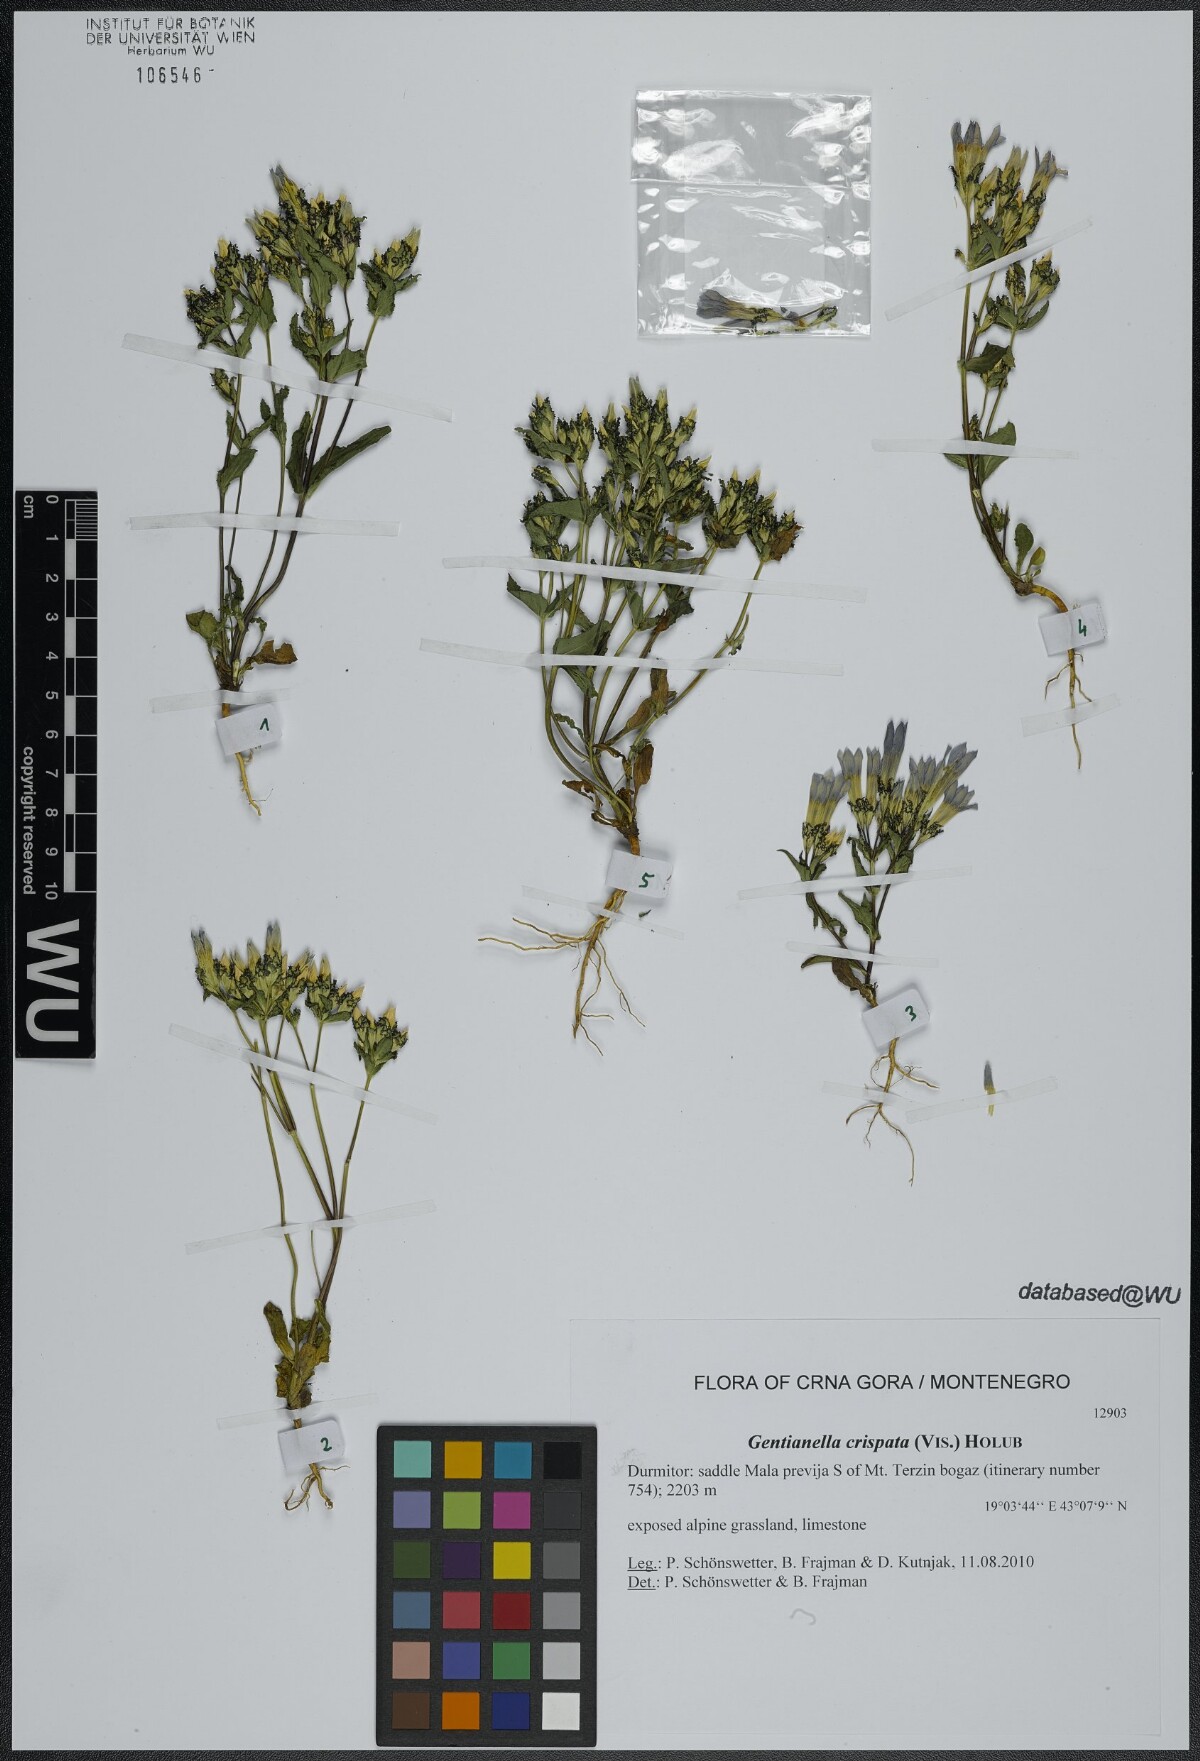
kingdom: Plantae
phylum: Tracheophyta
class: Magnoliopsida
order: Gentianales
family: Gentianaceae
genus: Gentianella
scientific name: Gentianella crispata
